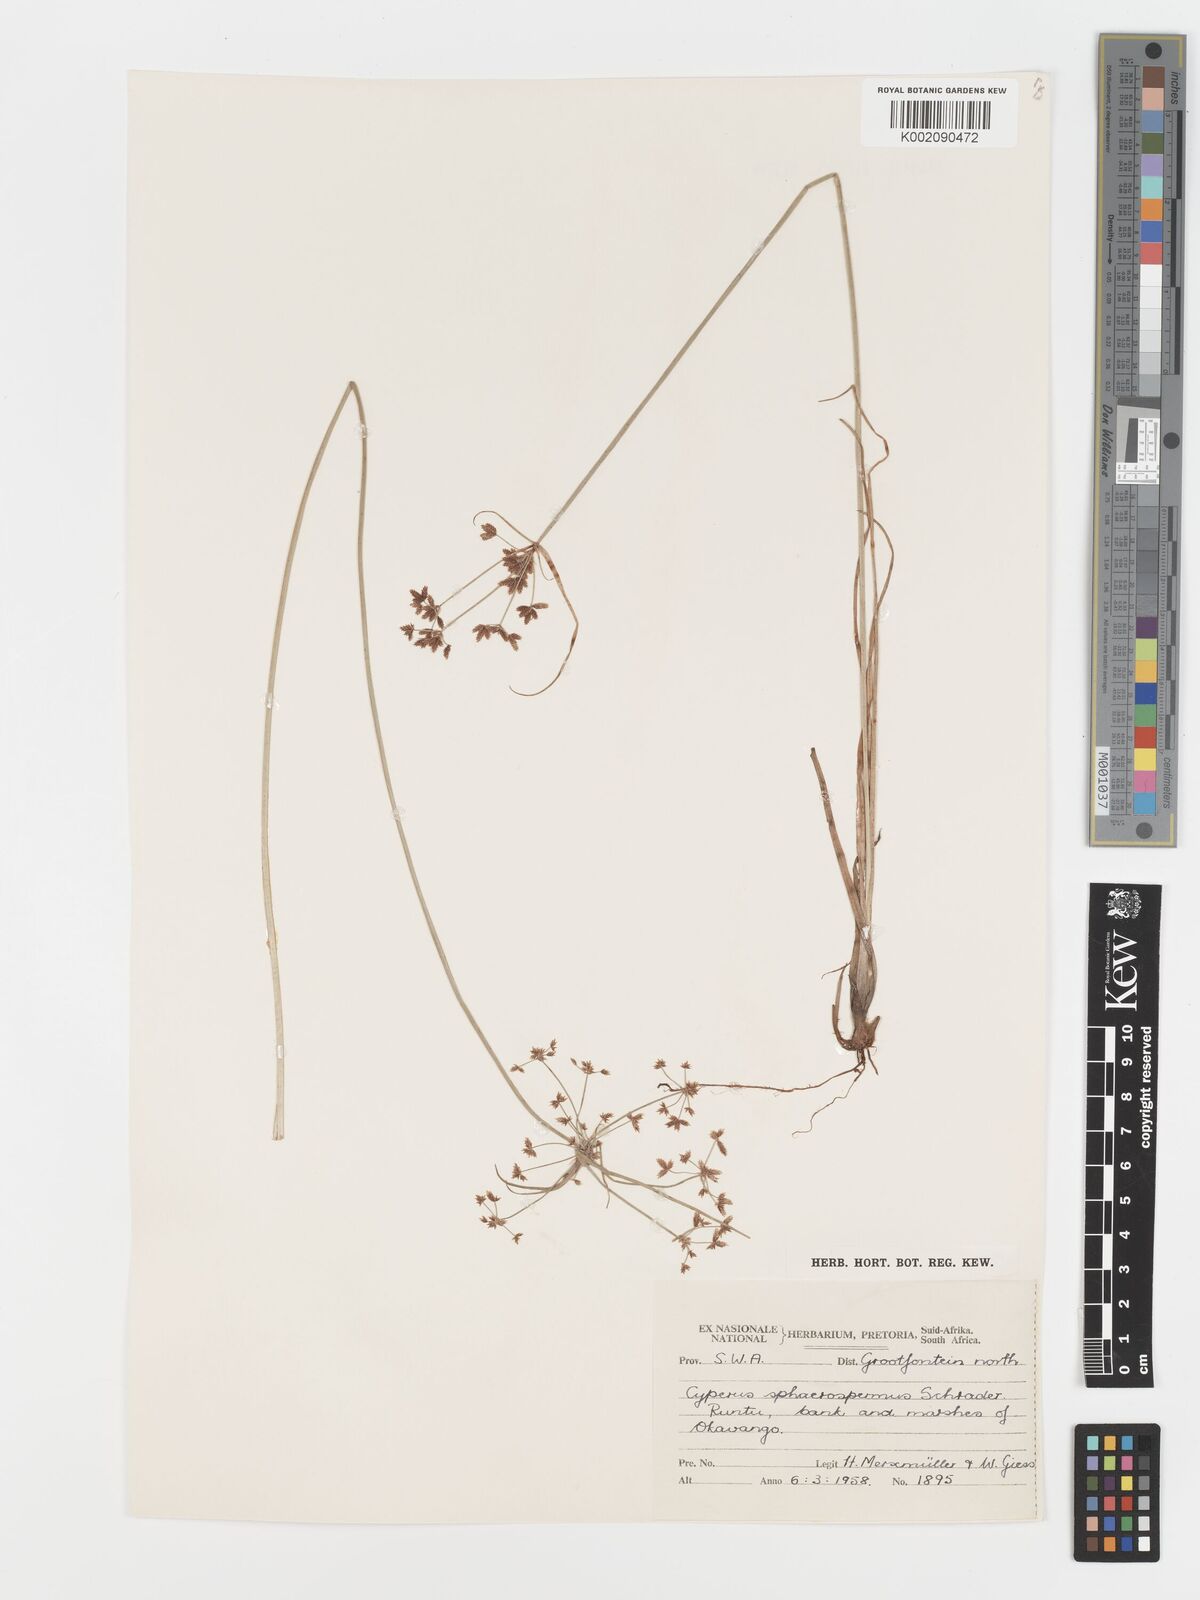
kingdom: Plantae
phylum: Tracheophyta
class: Liliopsida
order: Poales
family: Cyperaceae
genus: Cyperus
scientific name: Cyperus sphaerospermus
